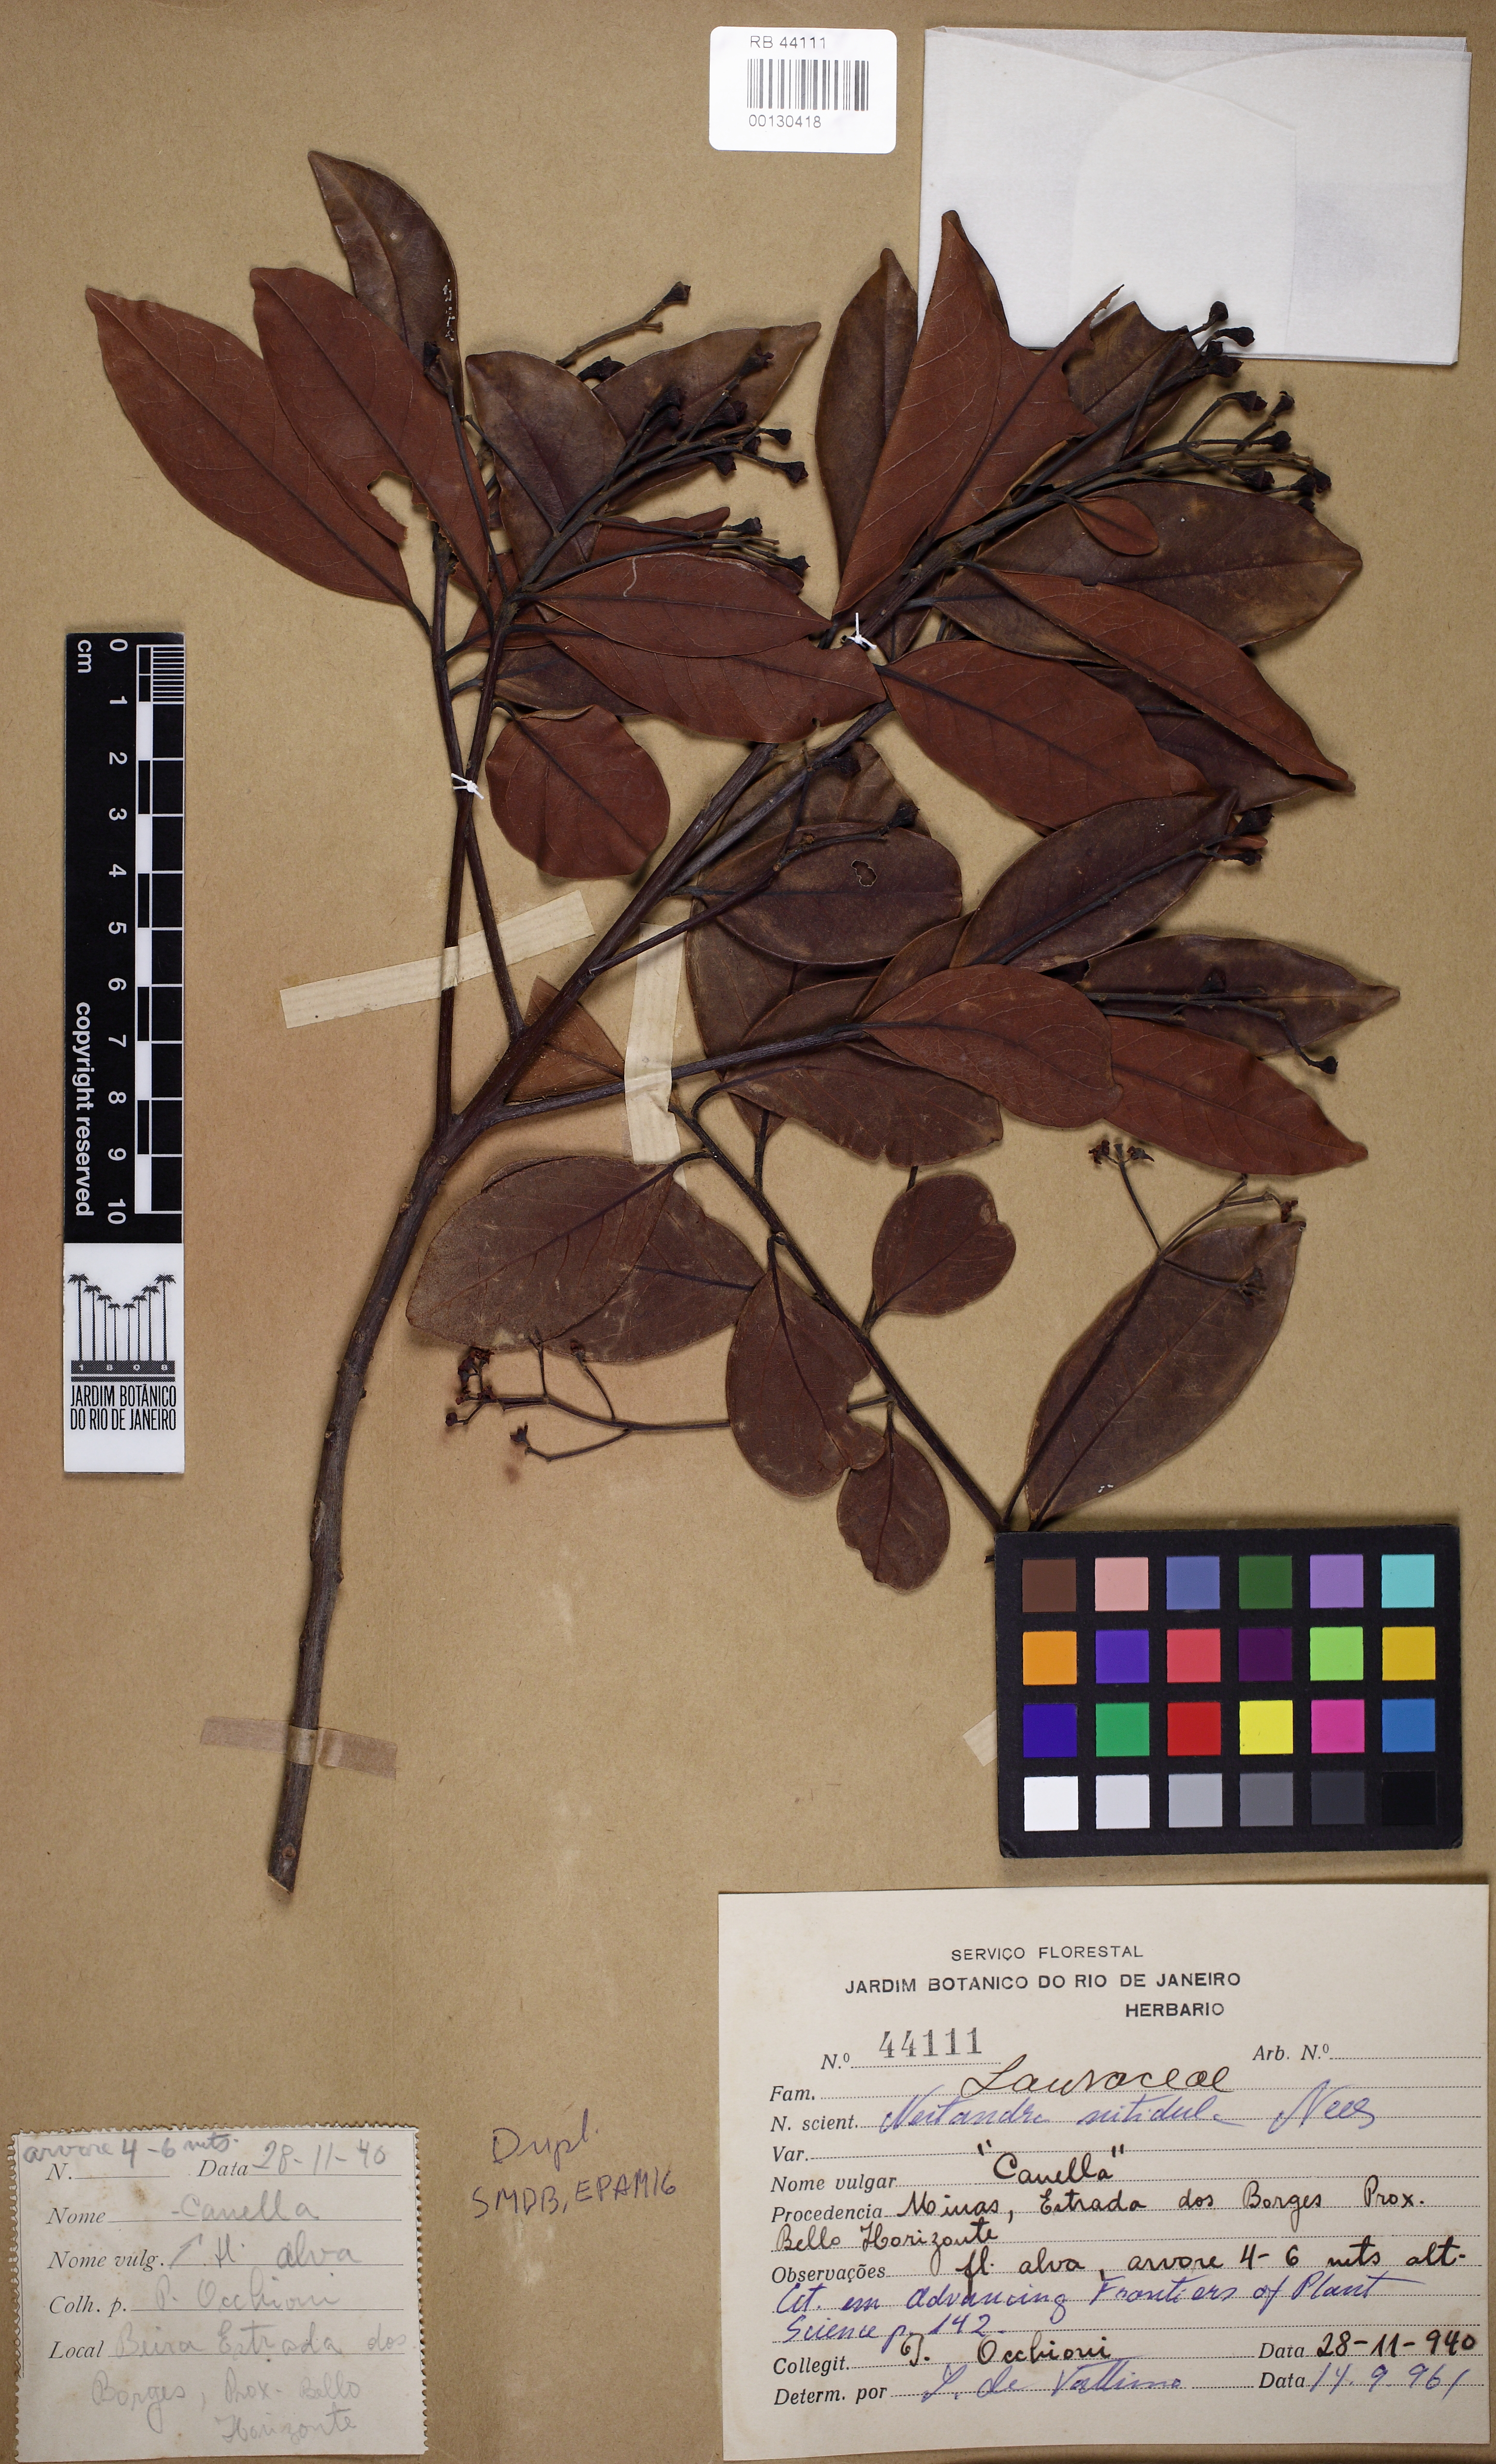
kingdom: Plantae
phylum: Tracheophyta
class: Magnoliopsida
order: Laurales
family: Lauraceae
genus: Nectandra
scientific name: Nectandra nitidula
